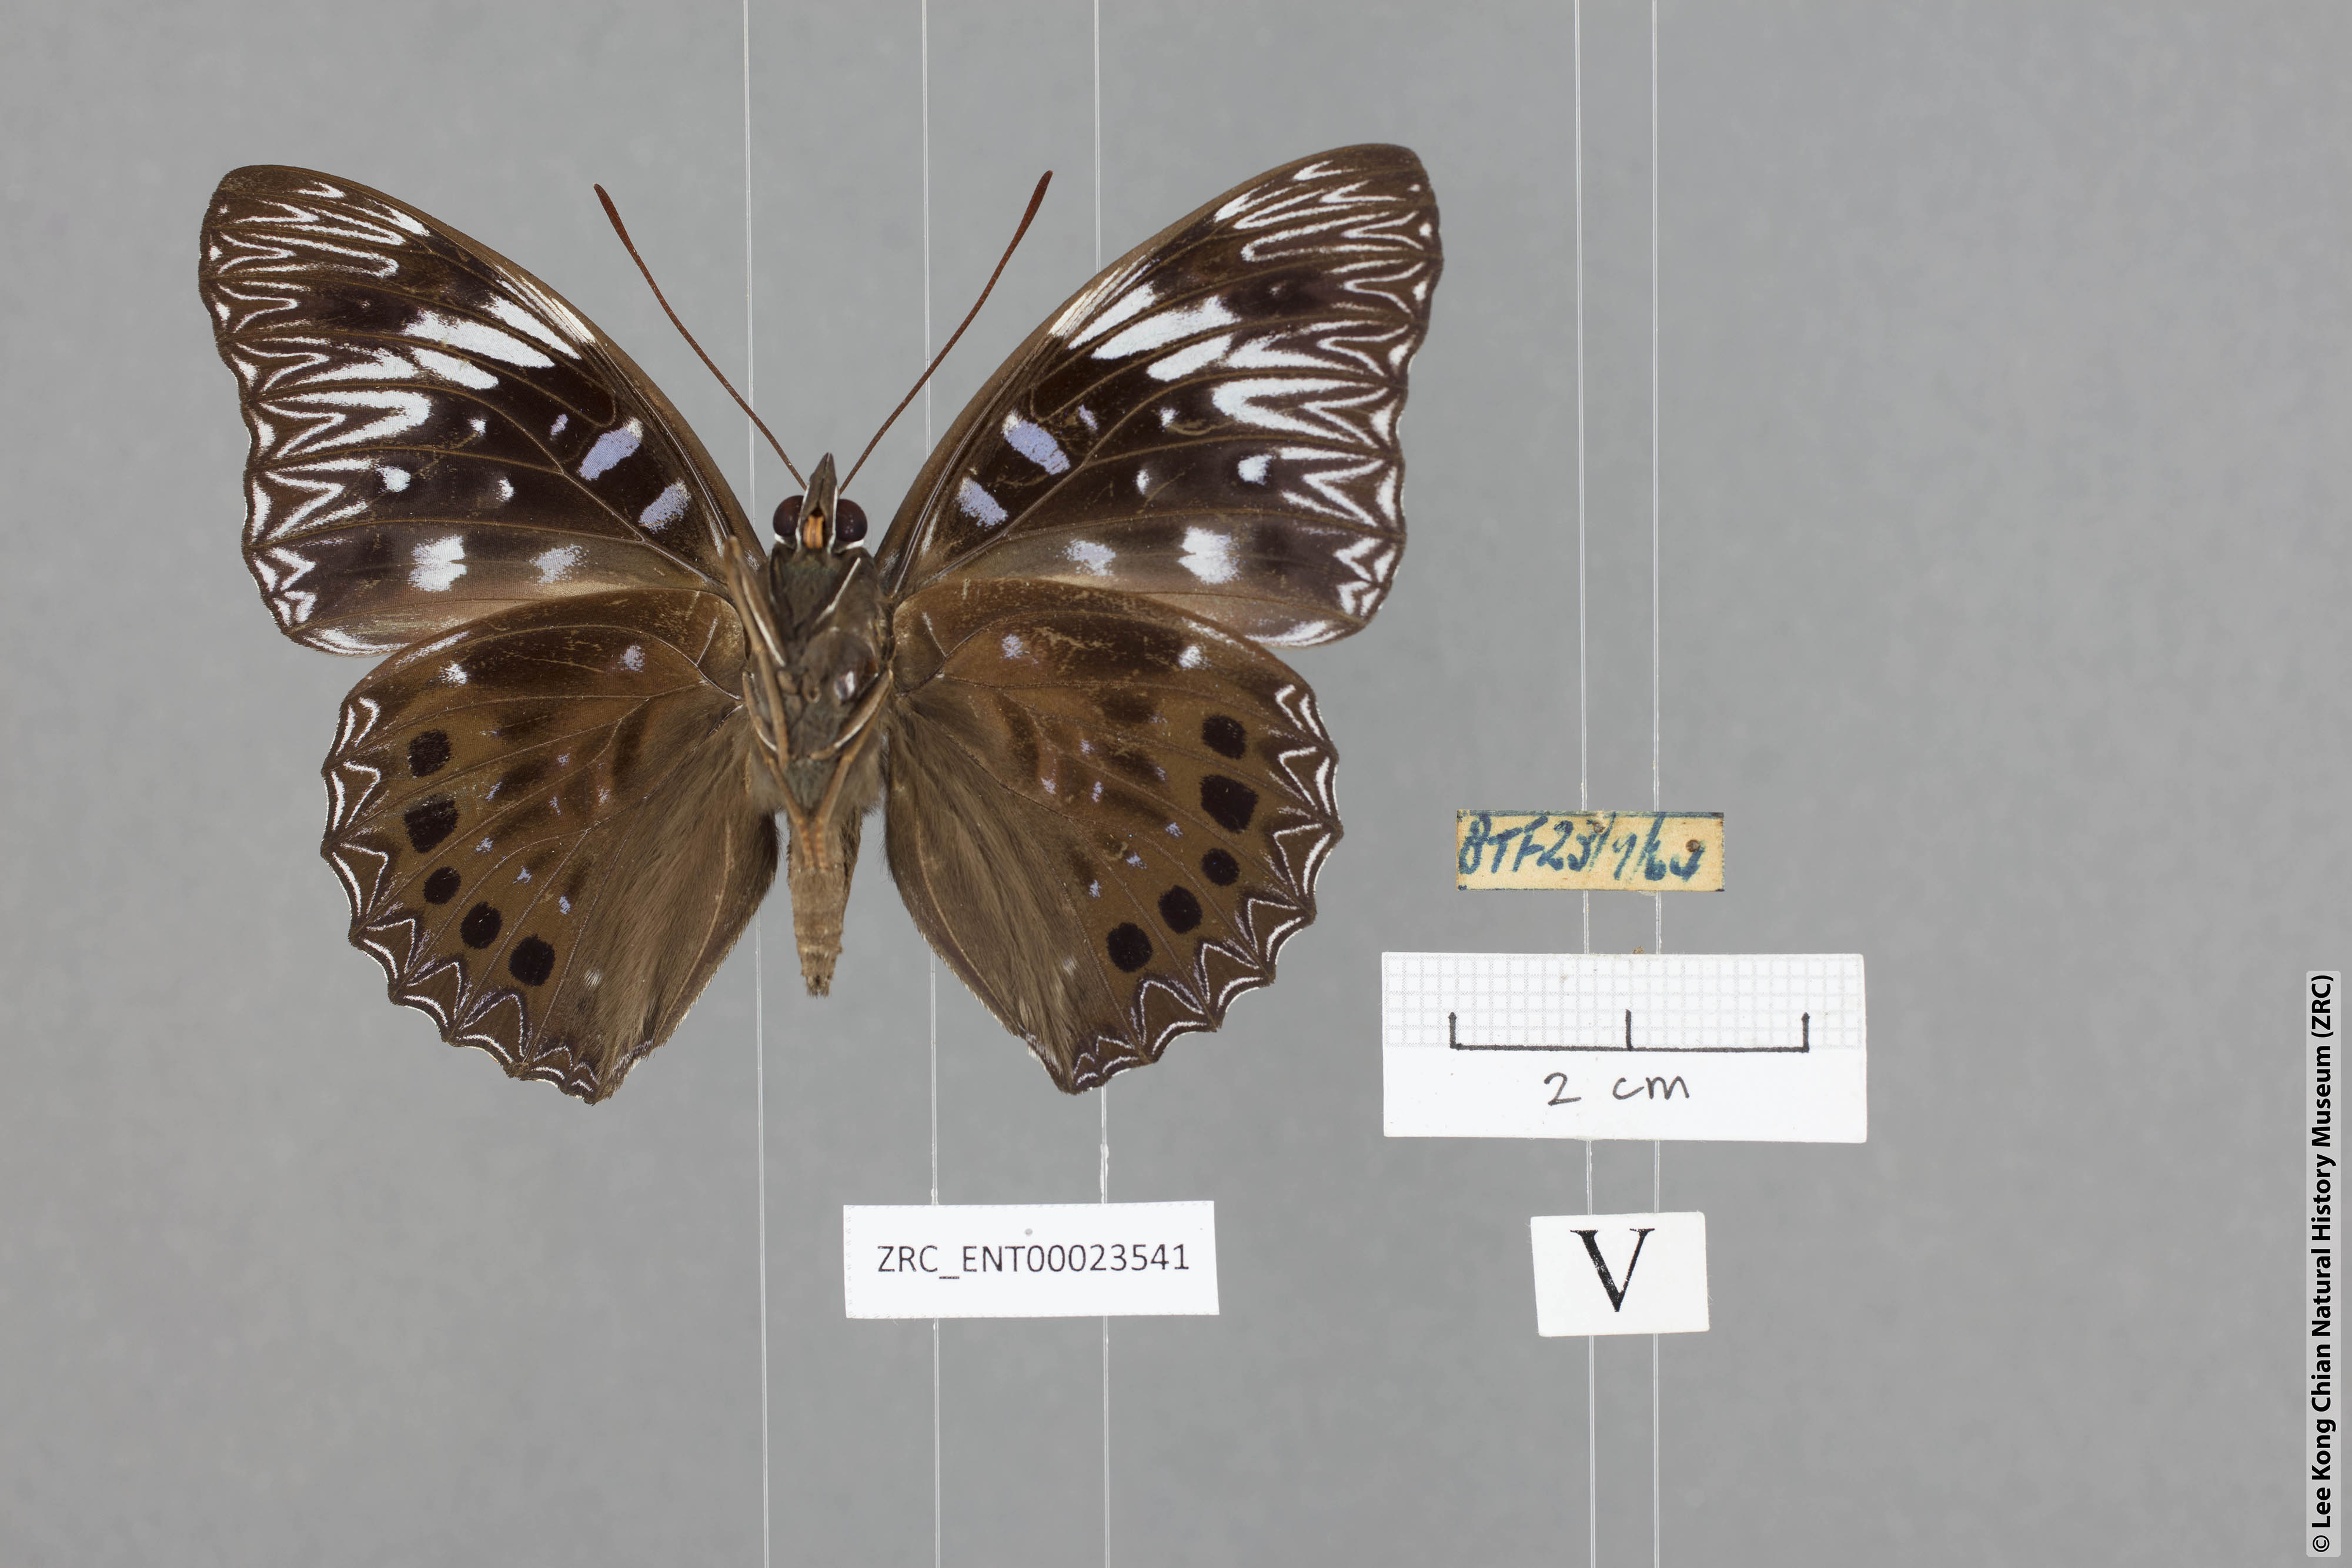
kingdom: Animalia
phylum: Arthropoda
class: Insecta
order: Lepidoptera
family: Nymphalidae
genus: Dichorragia
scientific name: Dichorragia nesimachus
